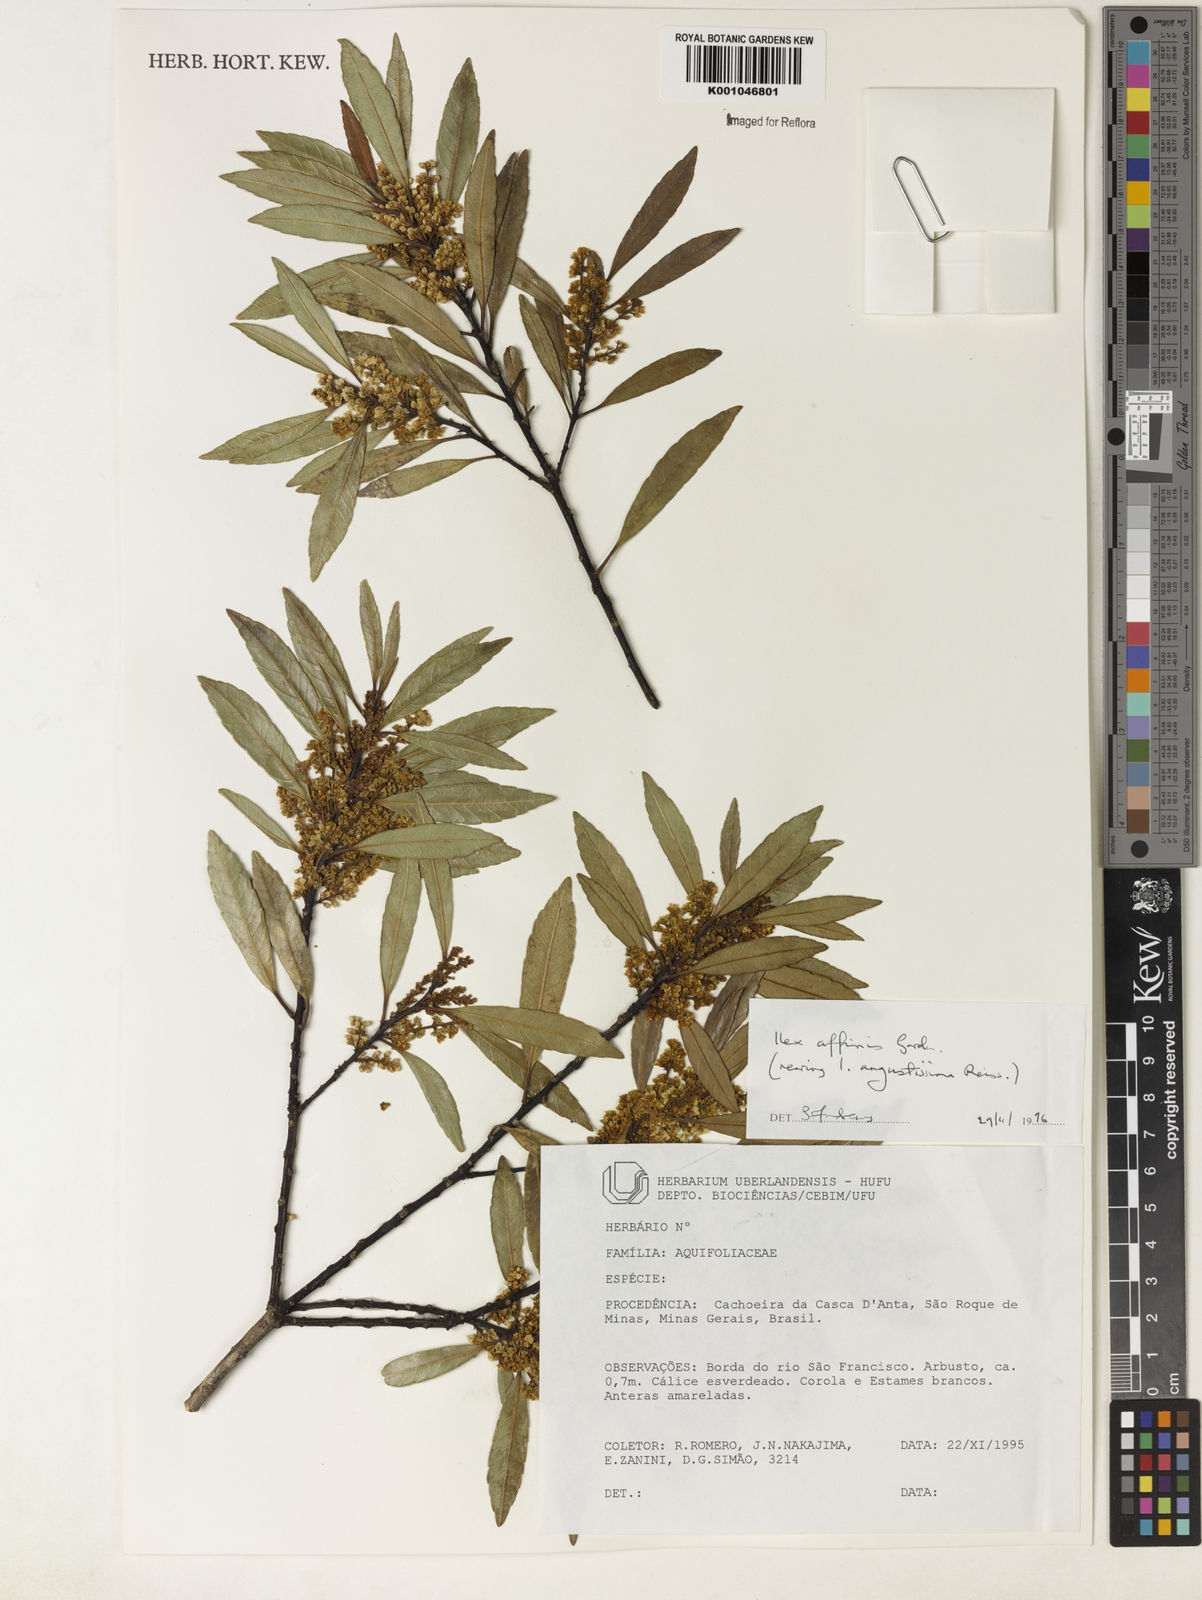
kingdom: Plantae
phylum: Tracheophyta
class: Magnoliopsida
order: Aquifoliales
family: Aquifoliaceae
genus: Ilex
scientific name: Ilex angustissima
